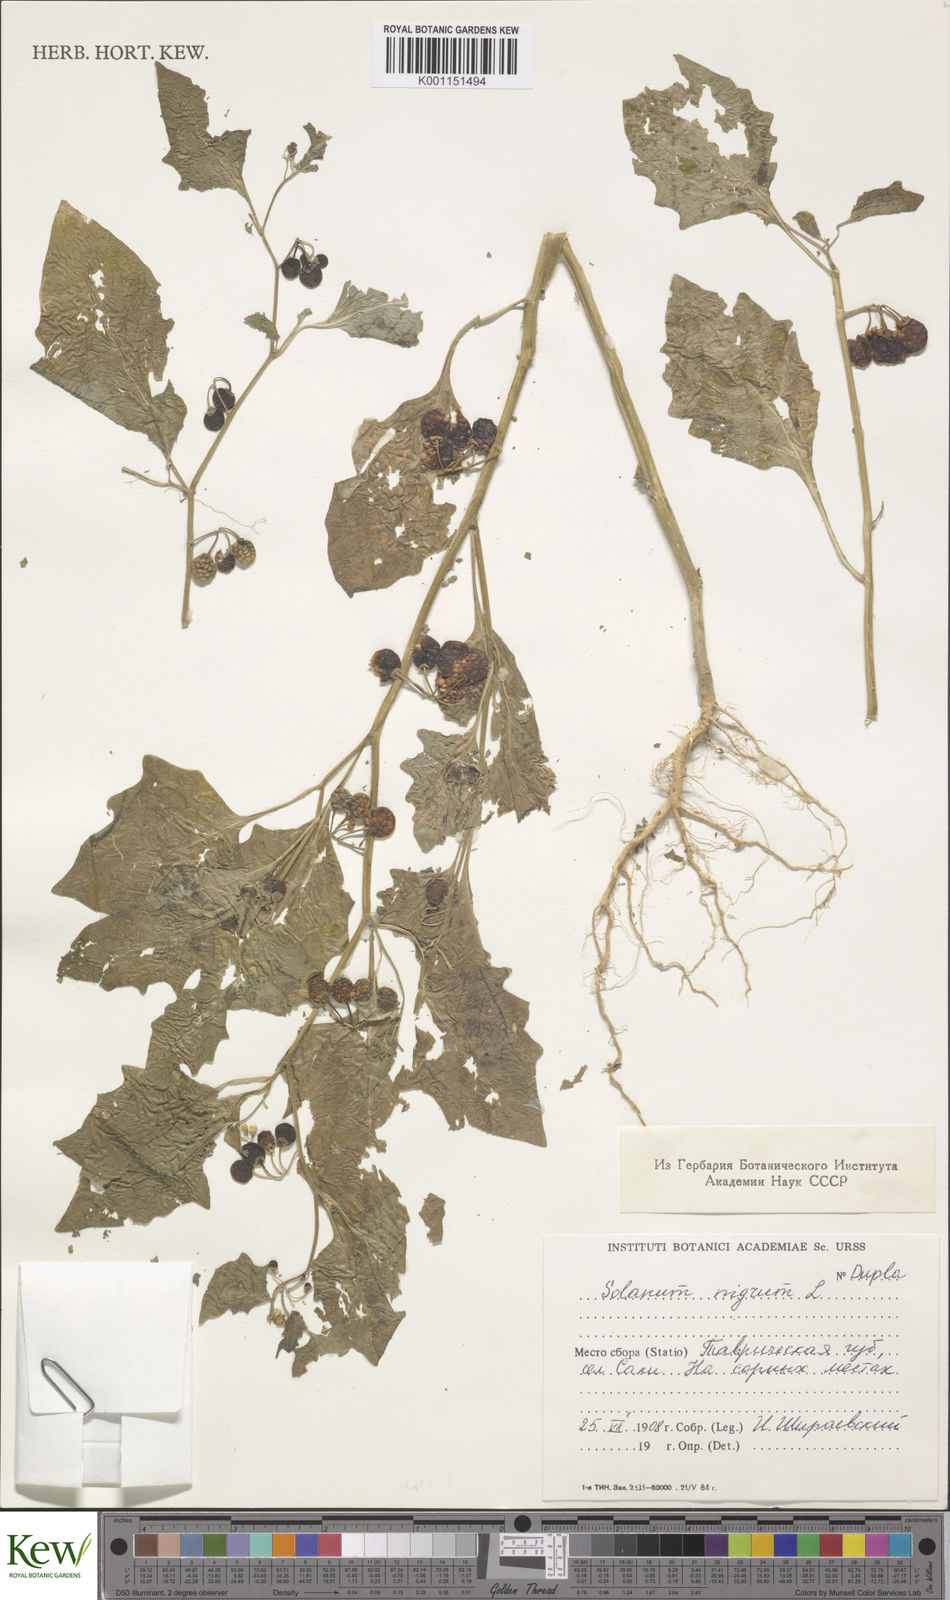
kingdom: Plantae
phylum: Tracheophyta
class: Magnoliopsida
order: Solanales
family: Solanaceae
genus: Solanum
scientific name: Solanum nigrum
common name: Black nightshade
